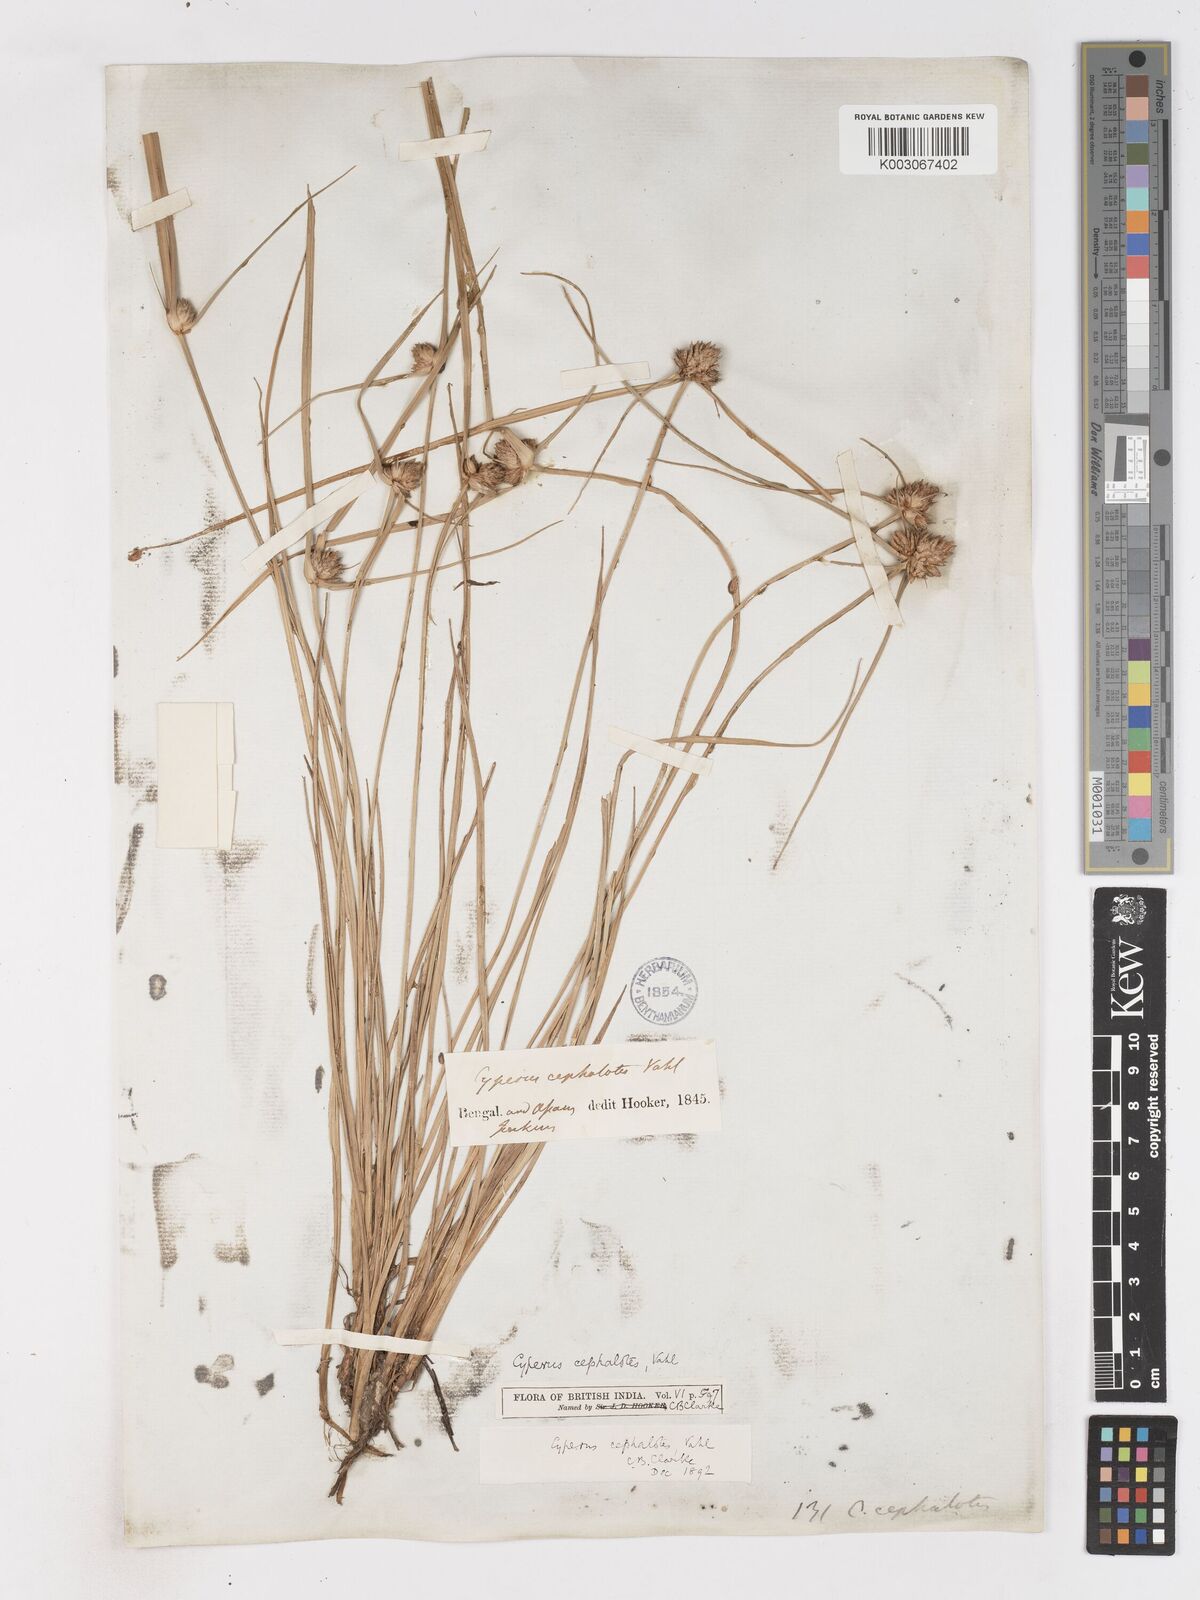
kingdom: Plantae
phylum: Tracheophyta
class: Liliopsida
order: Poales
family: Cyperaceae
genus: Cyperus
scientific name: Cyperus cephalotes
